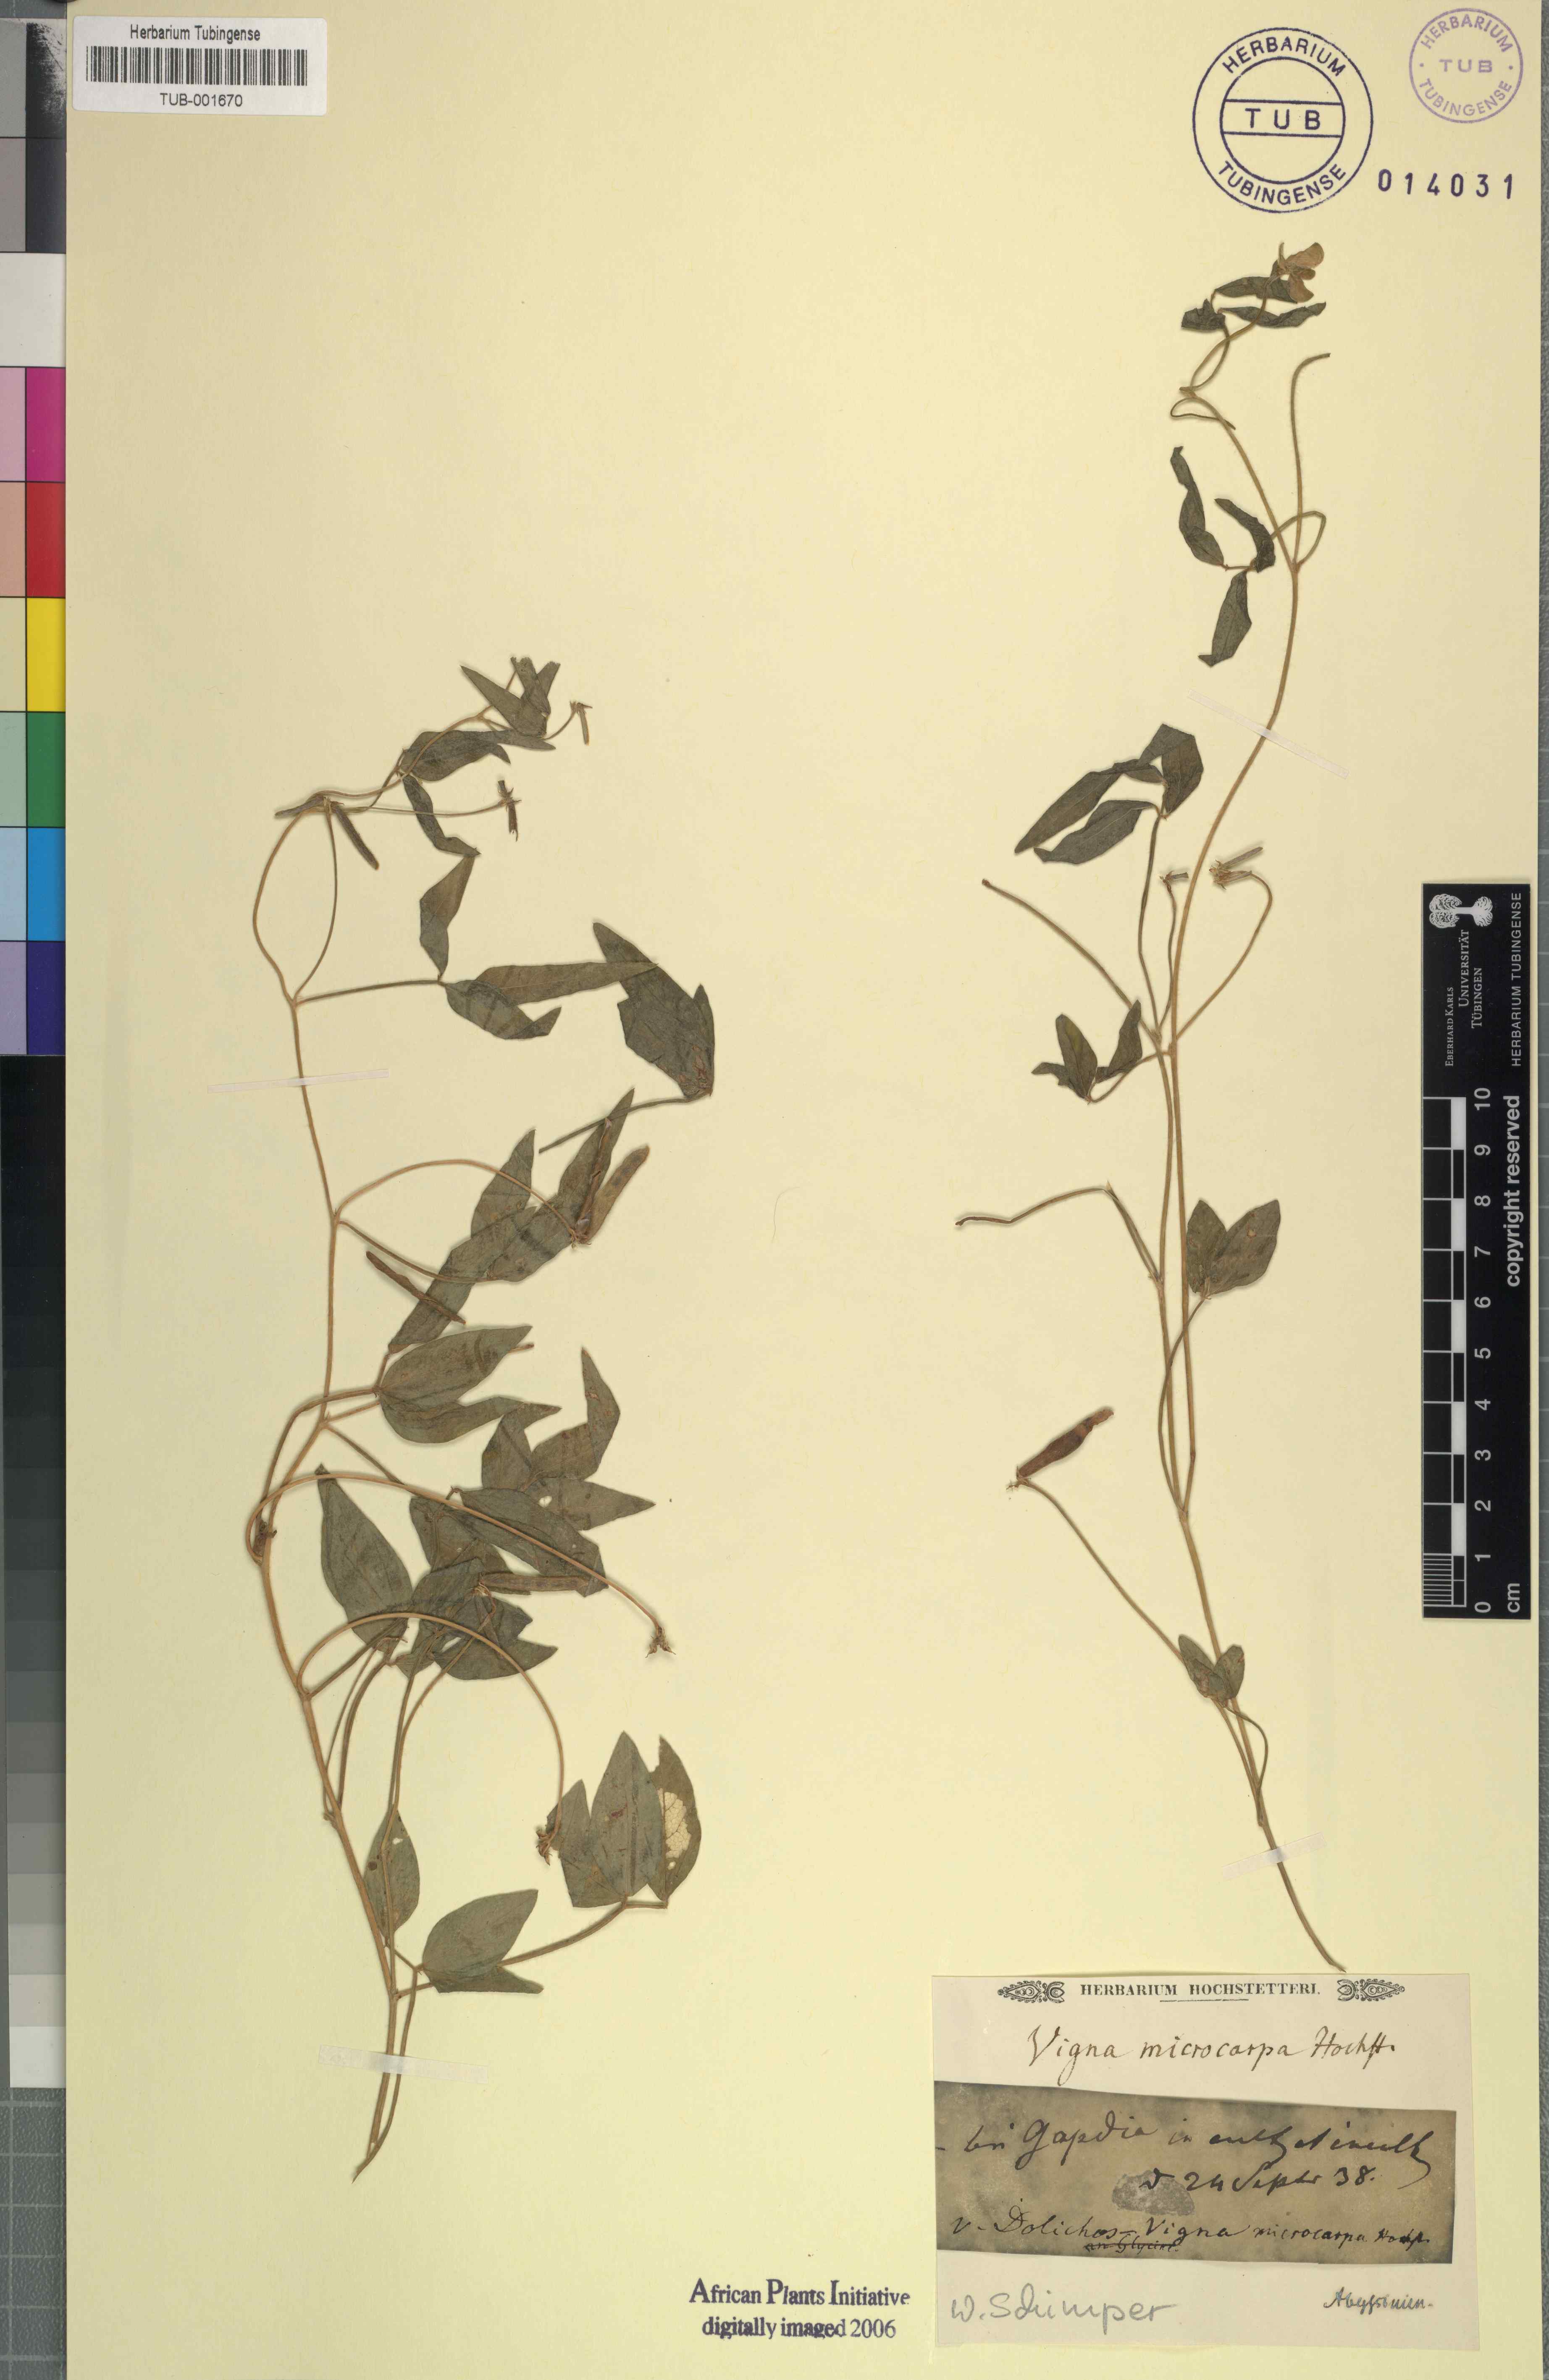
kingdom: Plantae
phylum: Tracheophyta
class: Magnoliopsida
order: Fabales
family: Fabaceae
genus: Vigna
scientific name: Vigna
